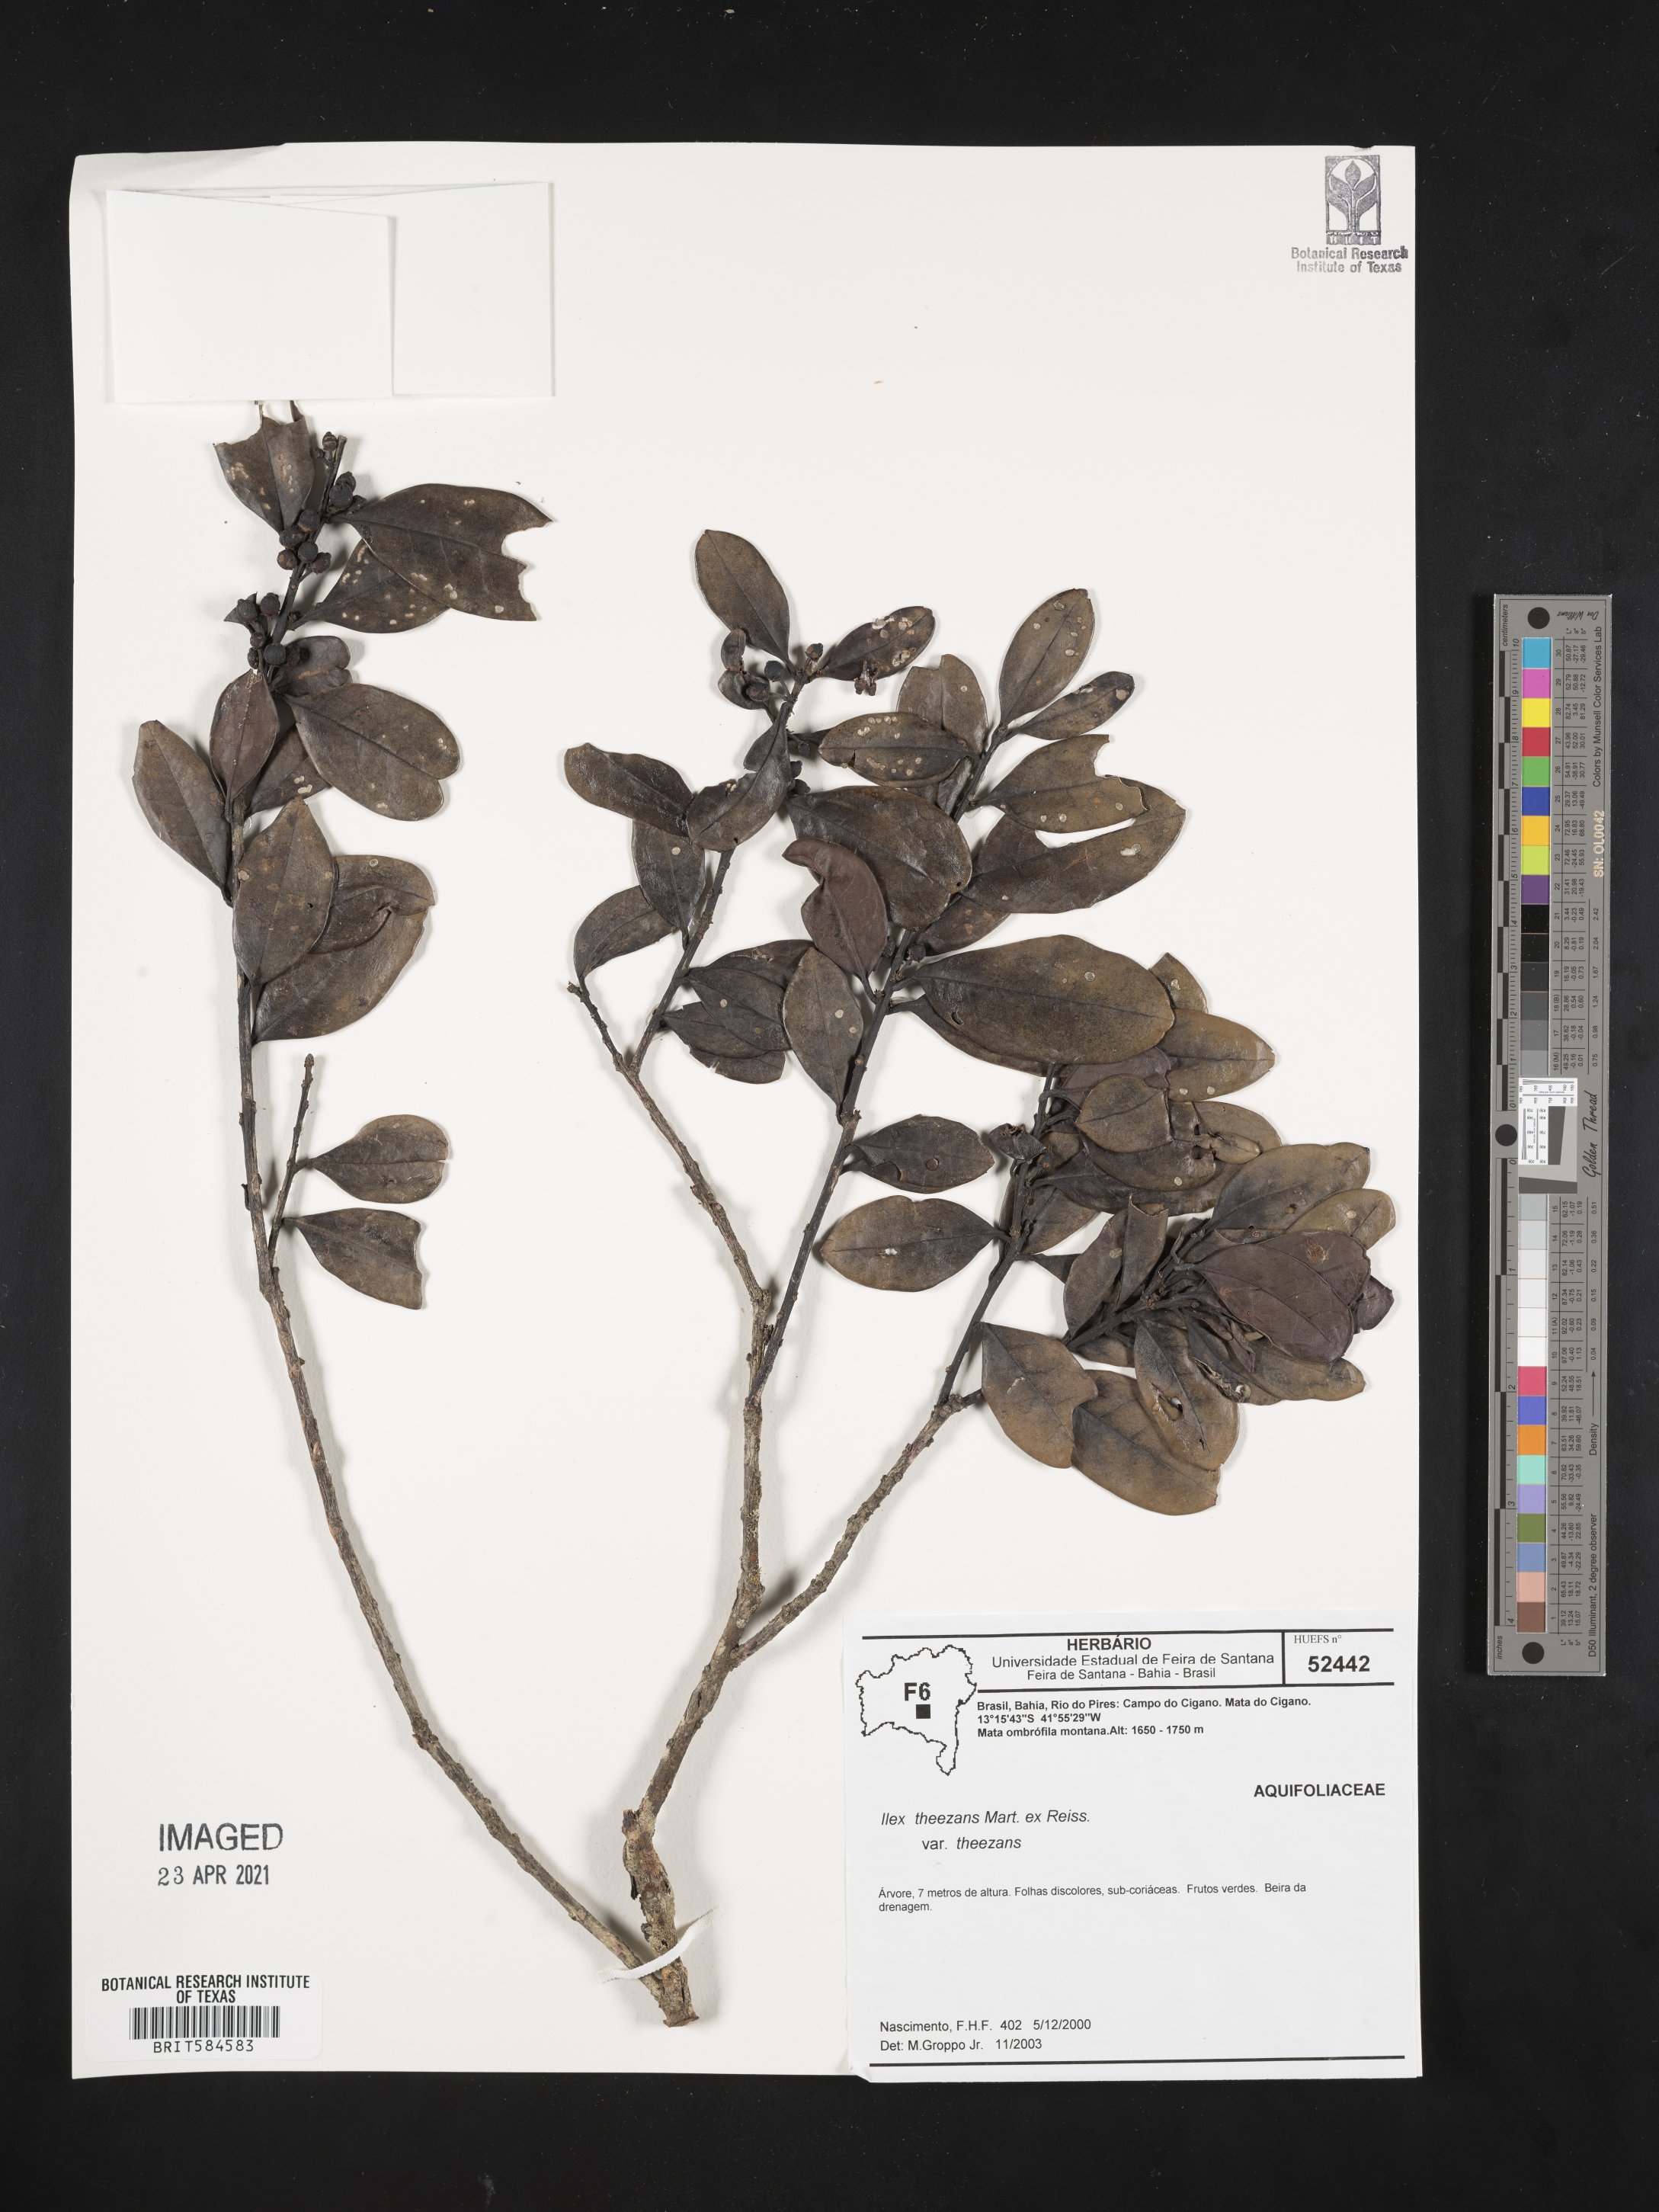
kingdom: Plantae
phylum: Tracheophyta
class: Magnoliopsida
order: Aquifoliales
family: Aquifoliaceae
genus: Ilex
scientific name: Ilex theezans
